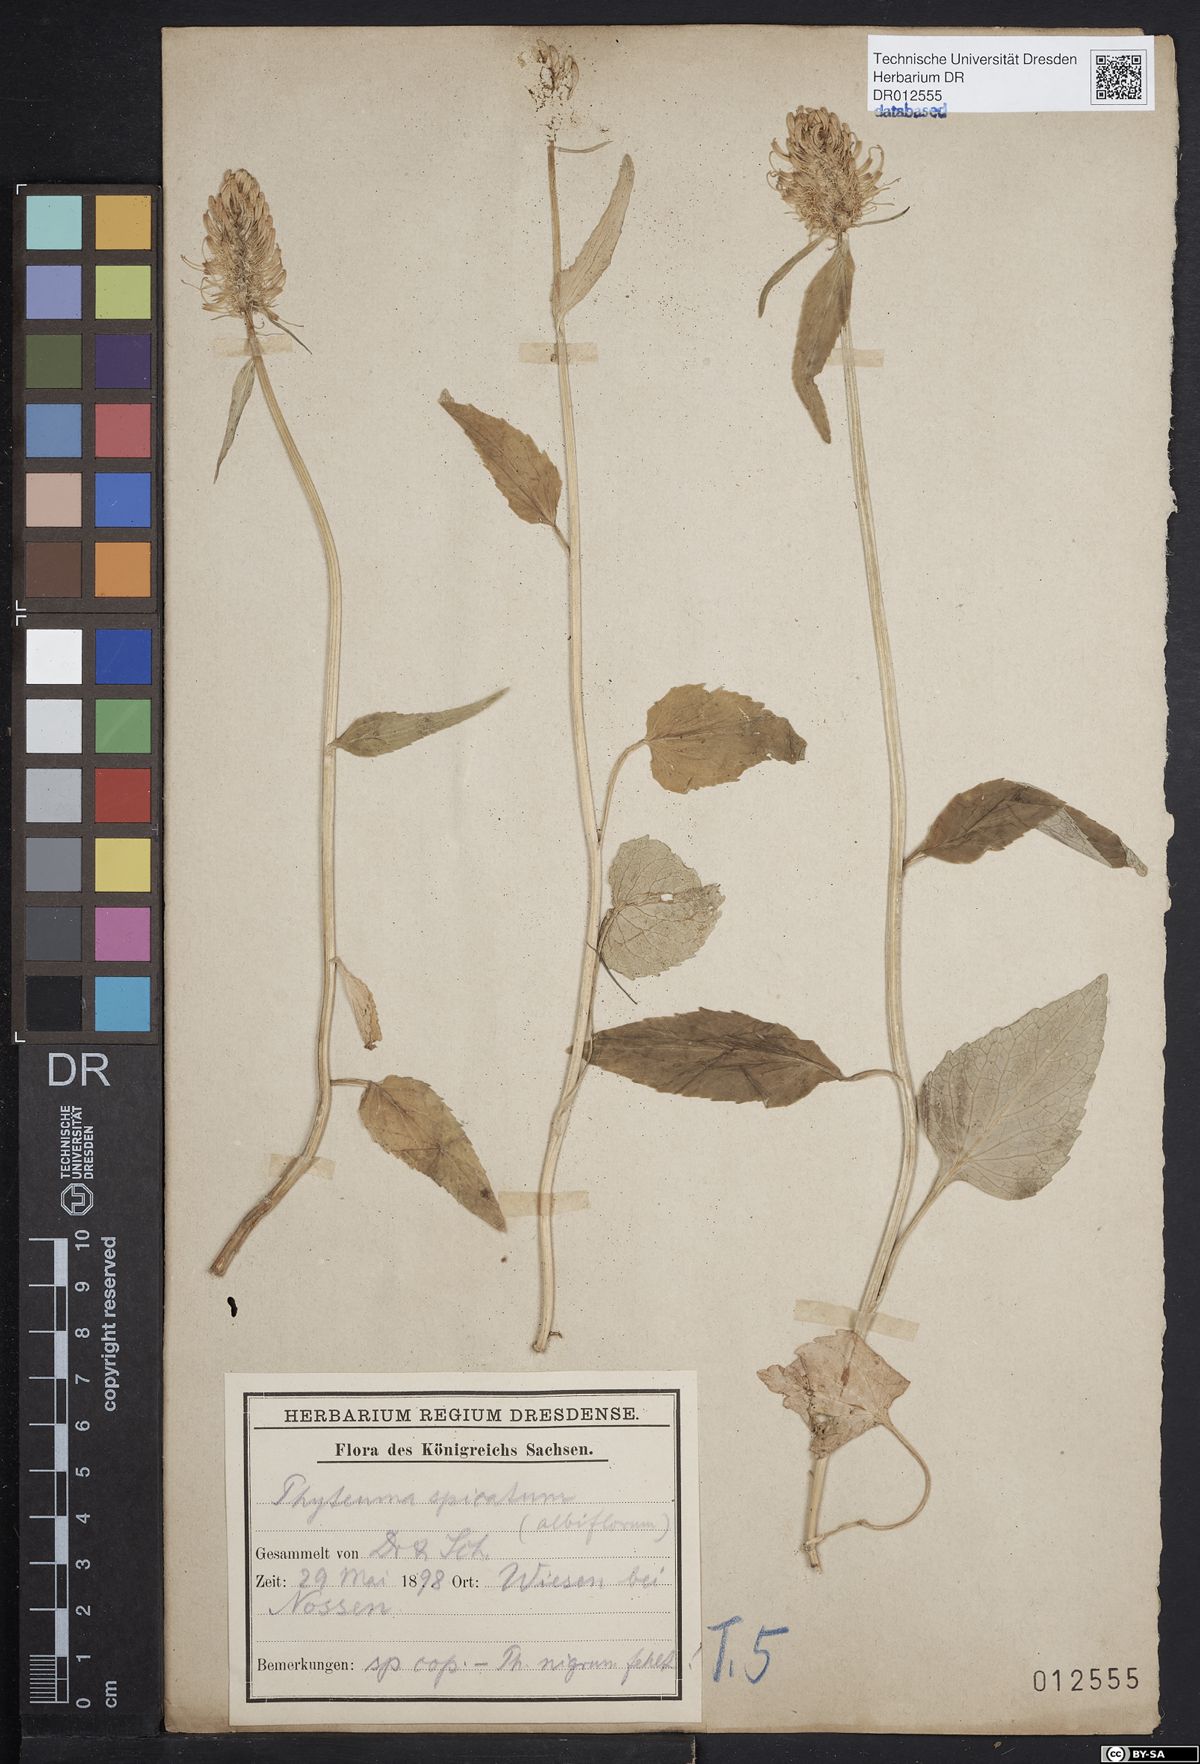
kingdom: Plantae
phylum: Tracheophyta
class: Magnoliopsida
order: Asterales
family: Campanulaceae
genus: Phyteuma
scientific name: Phyteuma spicatum
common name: Spiked rampion
